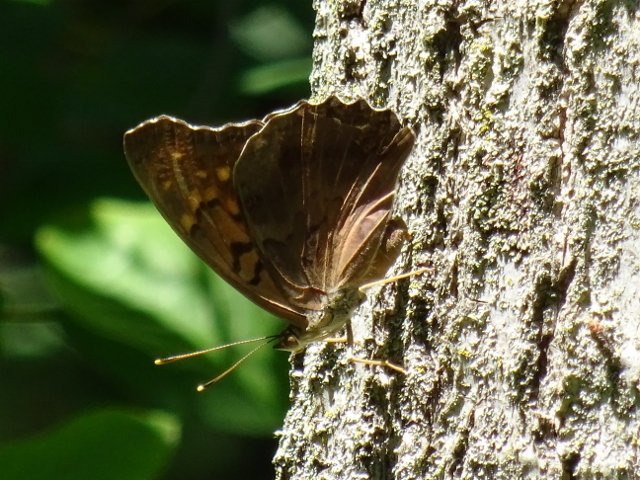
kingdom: Animalia
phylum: Arthropoda
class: Insecta
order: Lepidoptera
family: Nymphalidae
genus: Asterocampa
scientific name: Asterocampa clyton
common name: Tawny Emperor
